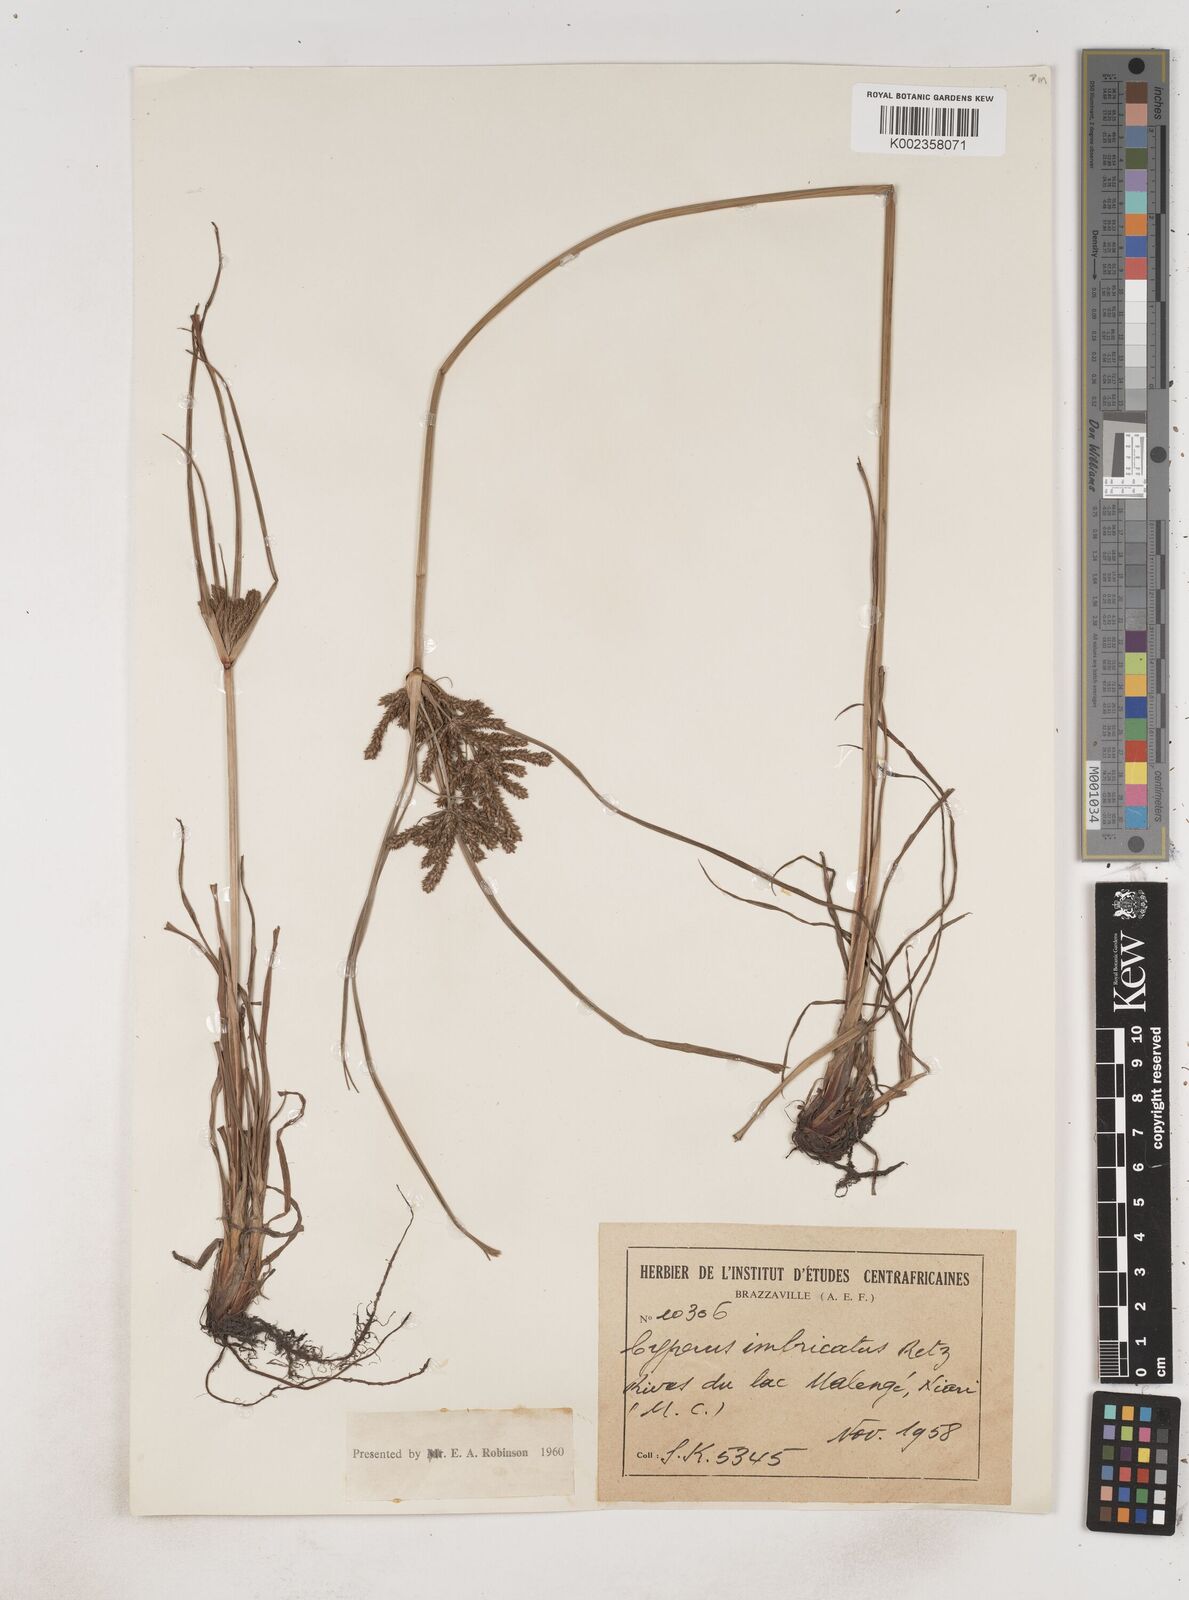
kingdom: Plantae
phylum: Tracheophyta
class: Liliopsida
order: Poales
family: Cyperaceae
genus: Cyperus
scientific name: Cyperus imbricatus
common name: Shingle flatsedge
